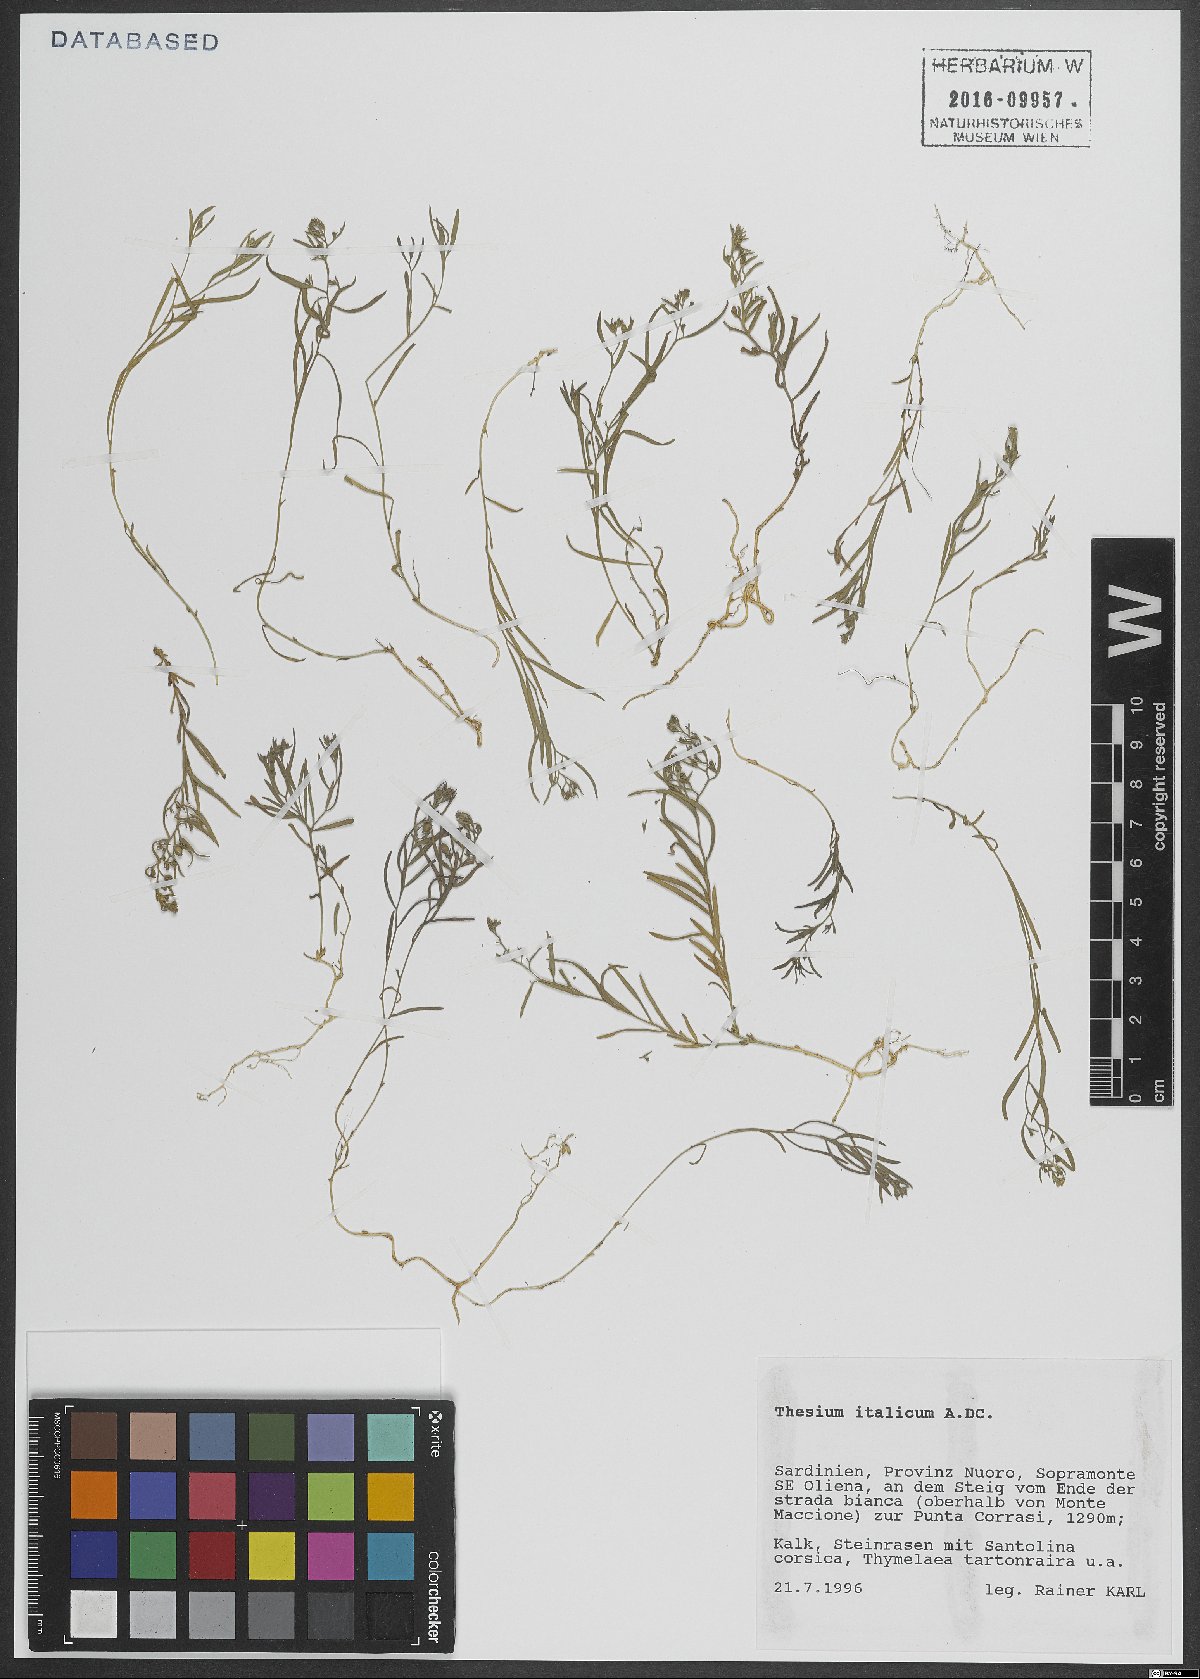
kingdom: Plantae
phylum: Tracheophyta
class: Magnoliopsida
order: Santalales
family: Thesiaceae
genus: Thesium
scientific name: Thesium italicum
